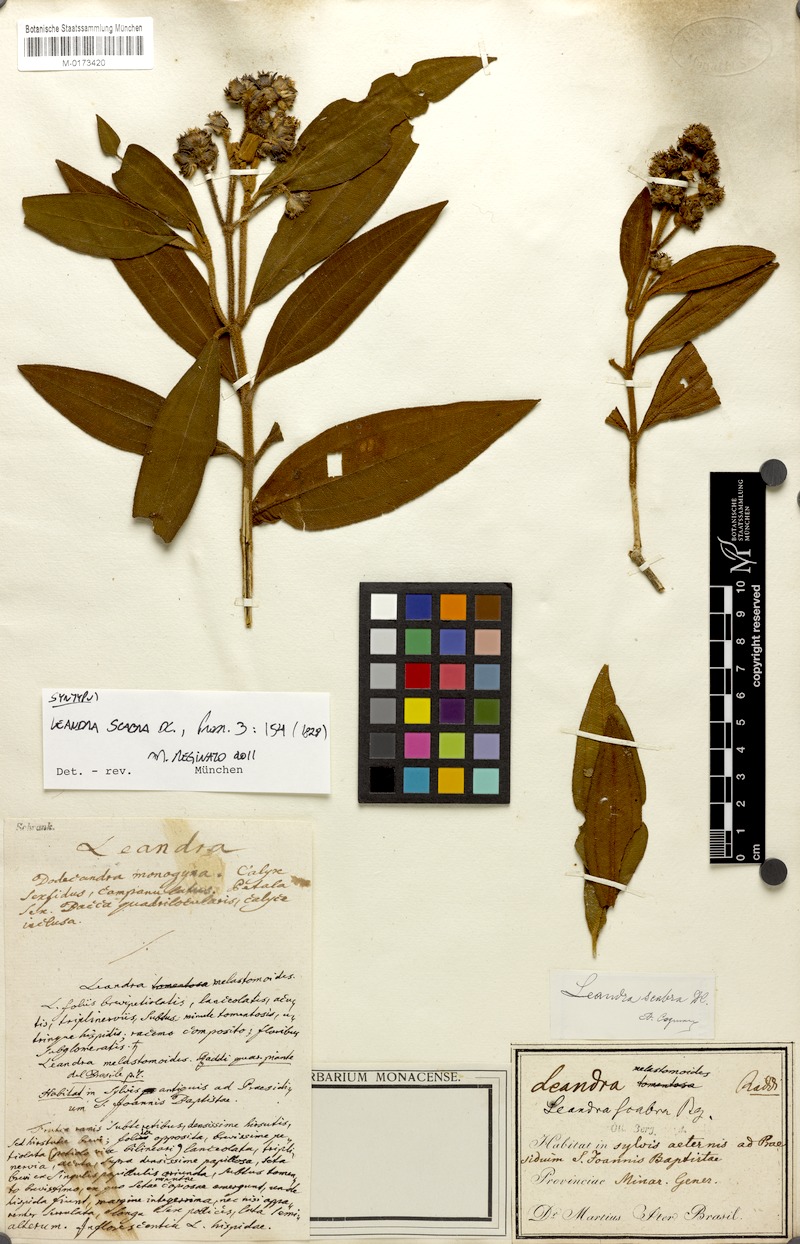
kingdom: Plantae
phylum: Tracheophyta
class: Magnoliopsida
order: Myrtales
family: Melastomataceae
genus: Miconia
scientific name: Miconia melastomoides
